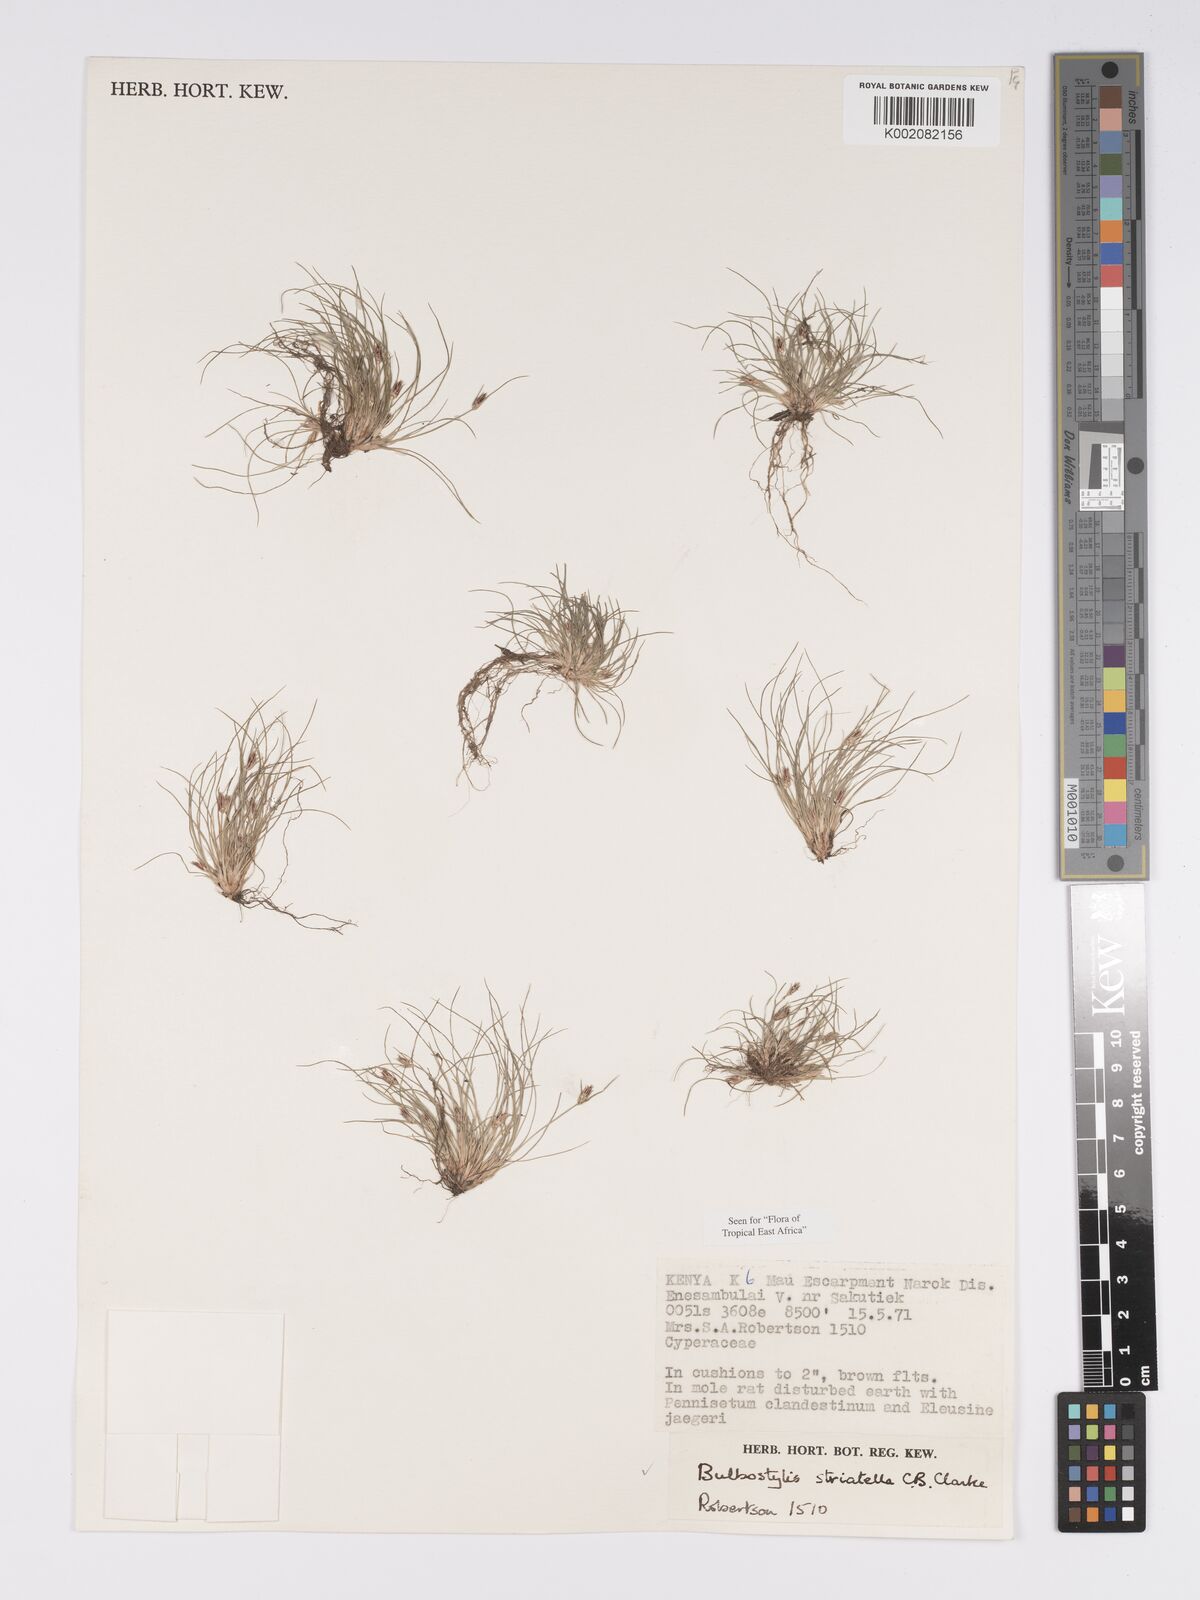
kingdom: Plantae
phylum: Tracheophyta
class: Liliopsida
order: Poales
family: Cyperaceae
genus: Bulbostylis
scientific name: Bulbostylis humilis
